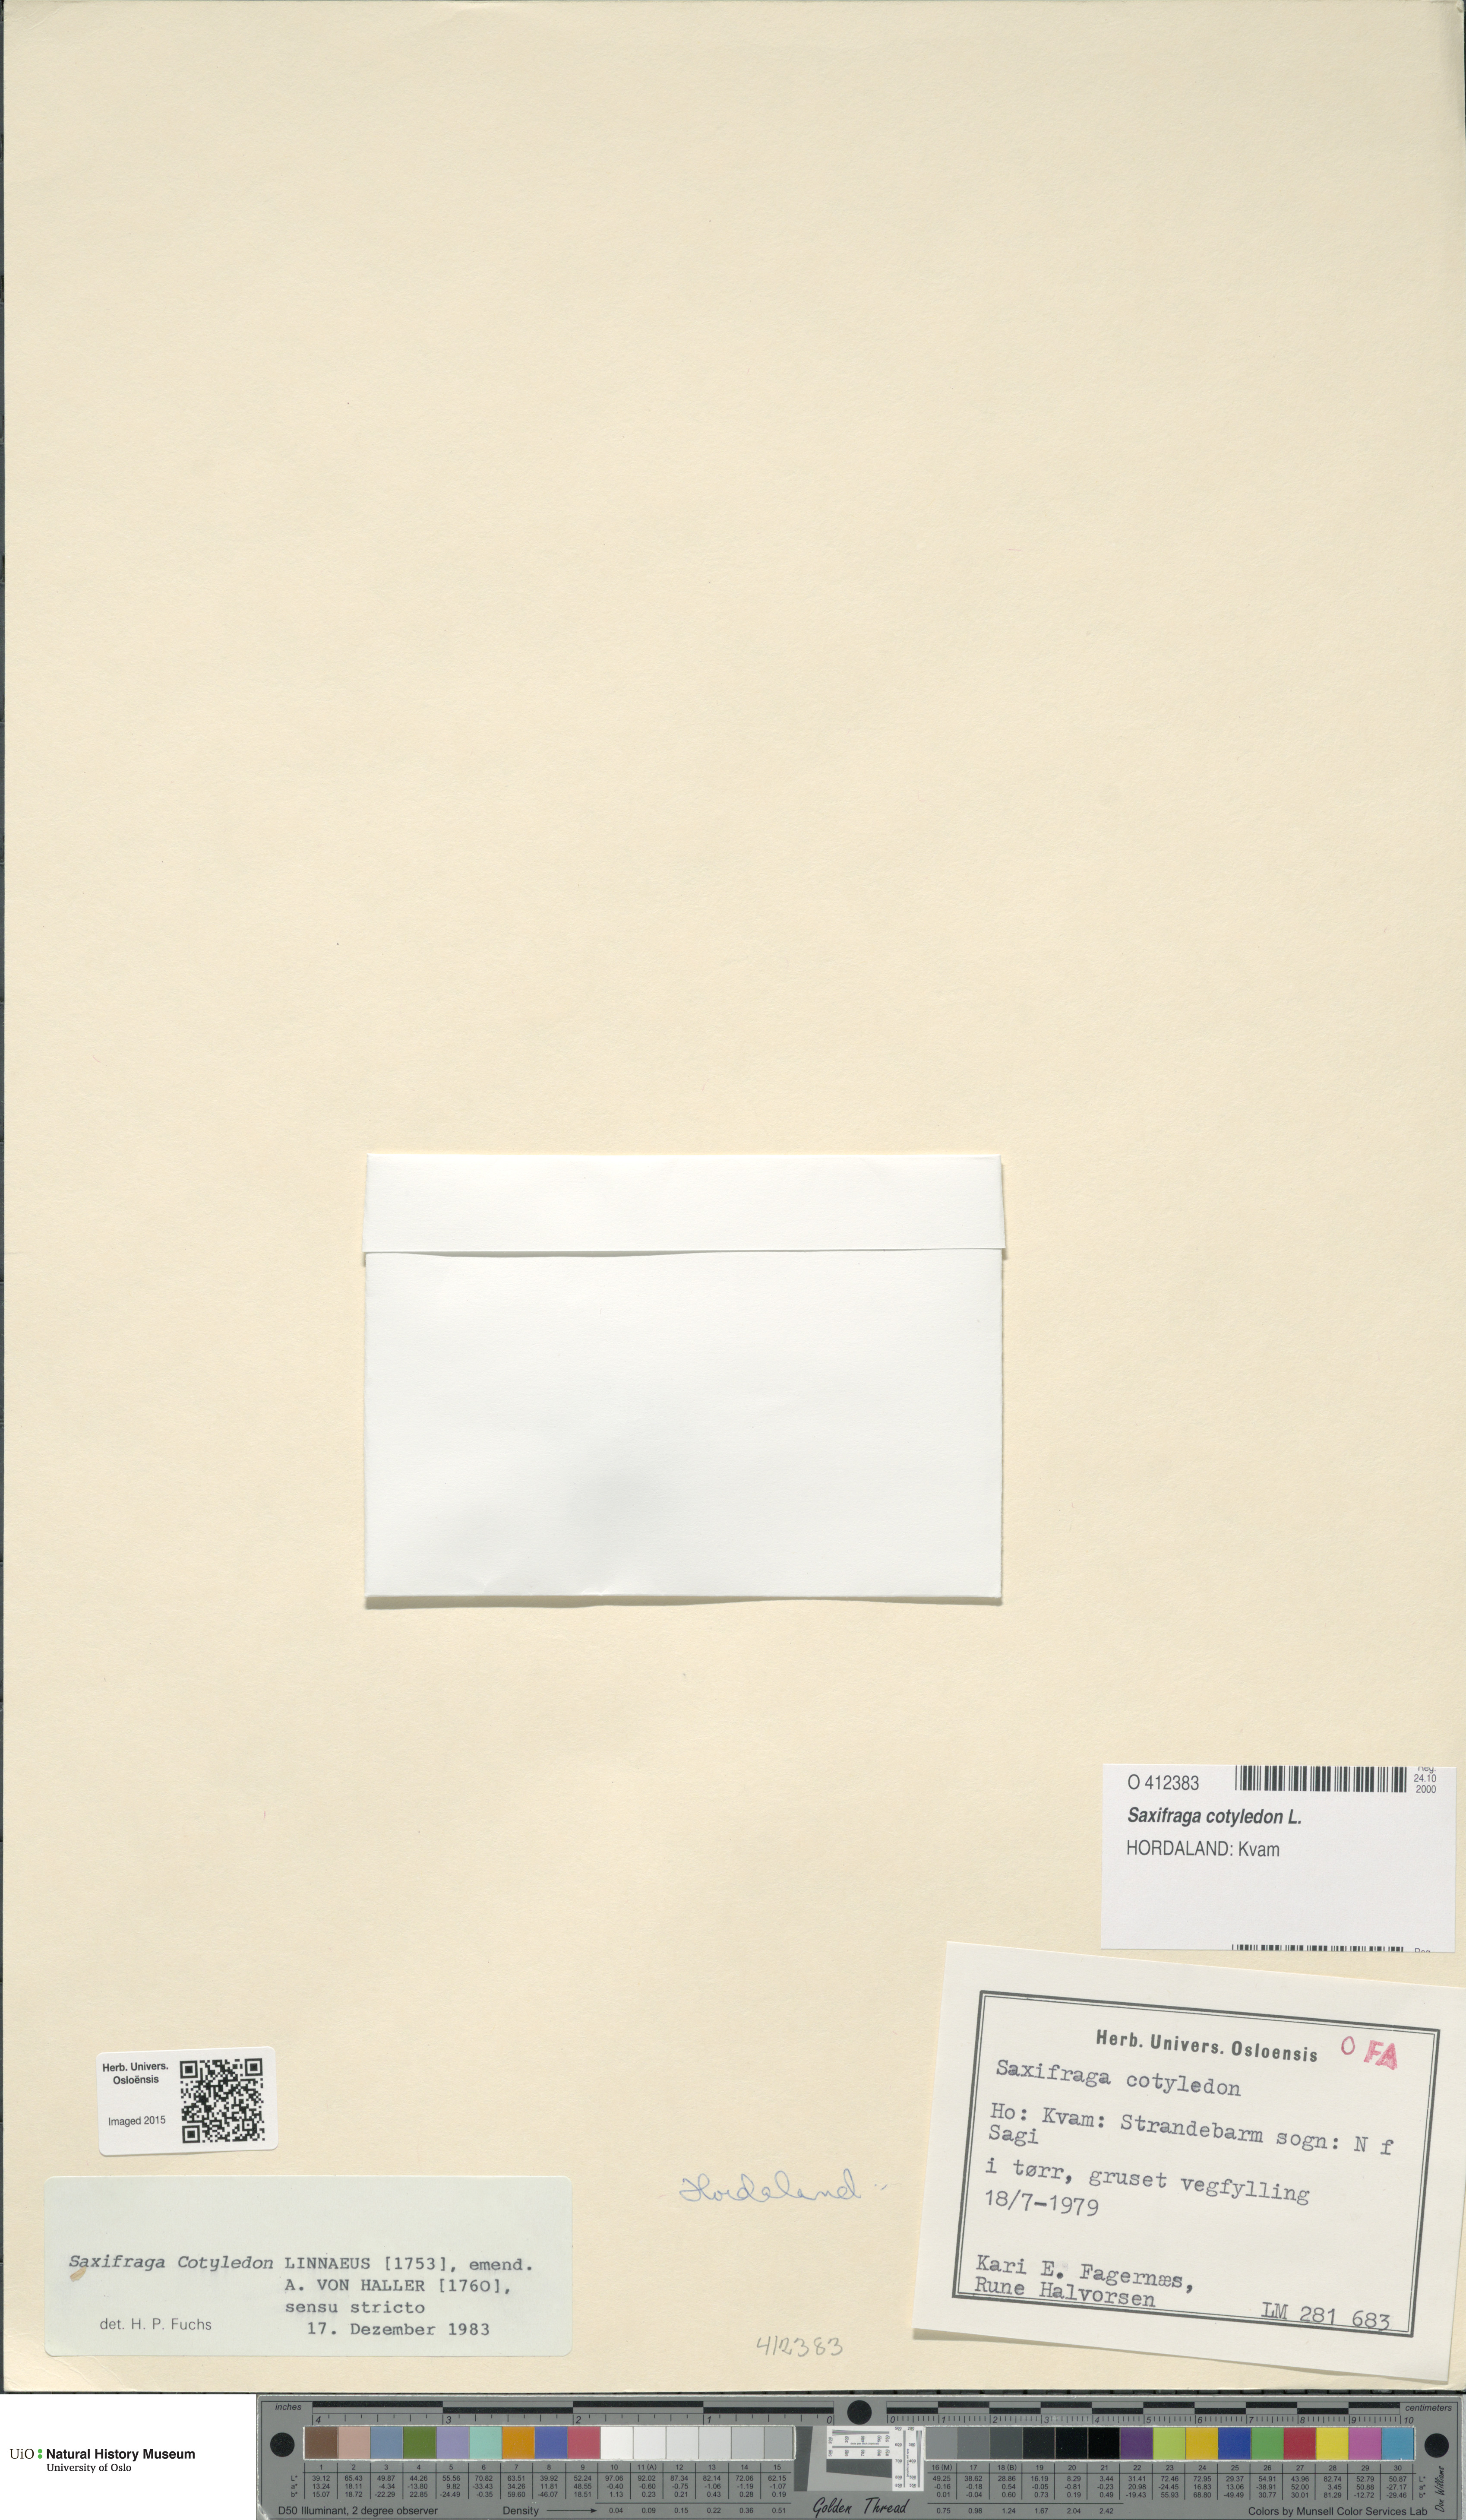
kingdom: Plantae
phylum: Tracheophyta
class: Magnoliopsida
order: Saxifragales
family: Saxifragaceae
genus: Saxifraga
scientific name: Saxifraga cotyledon
